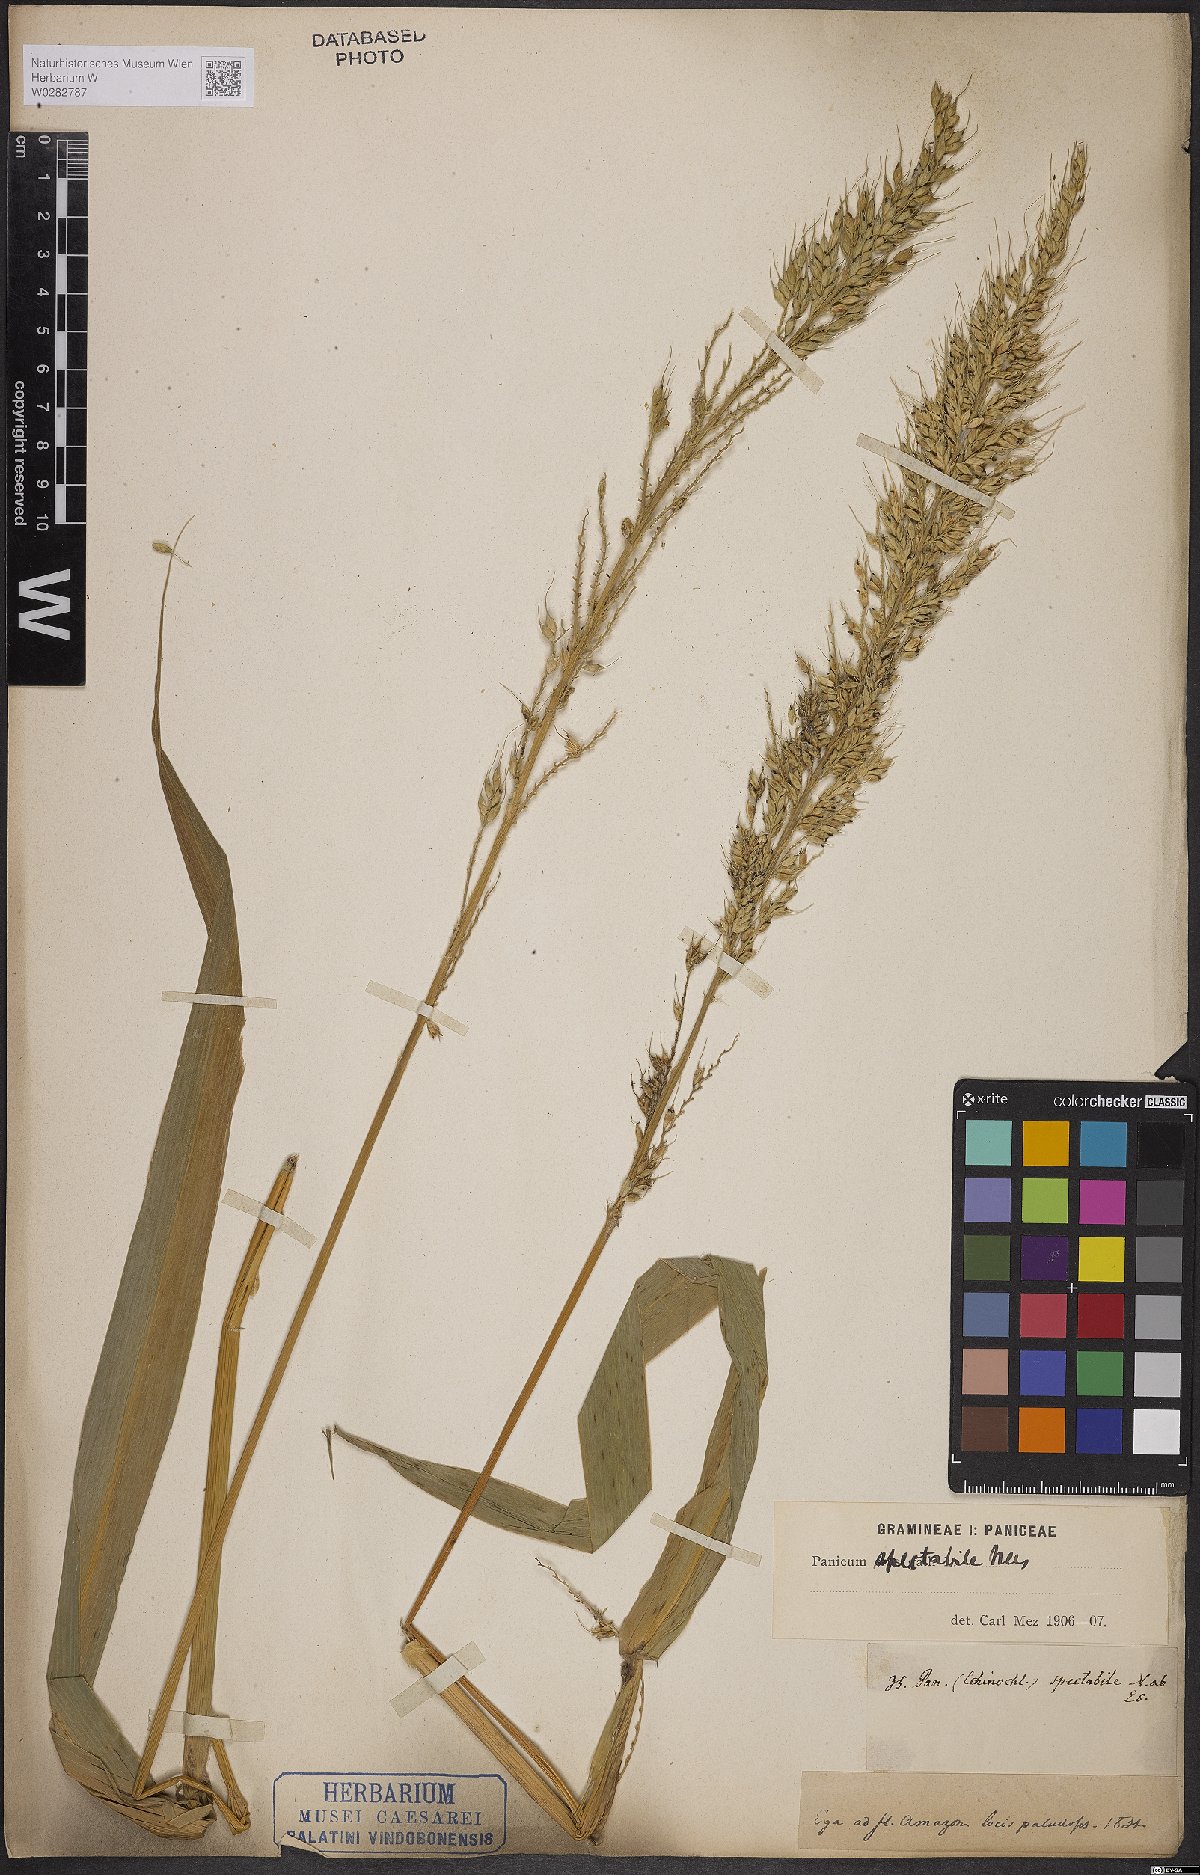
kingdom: Plantae
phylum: Tracheophyta
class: Liliopsida
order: Poales
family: Poaceae
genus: Echinochloa
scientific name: Echinochloa polystachya
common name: Creeping river grass
